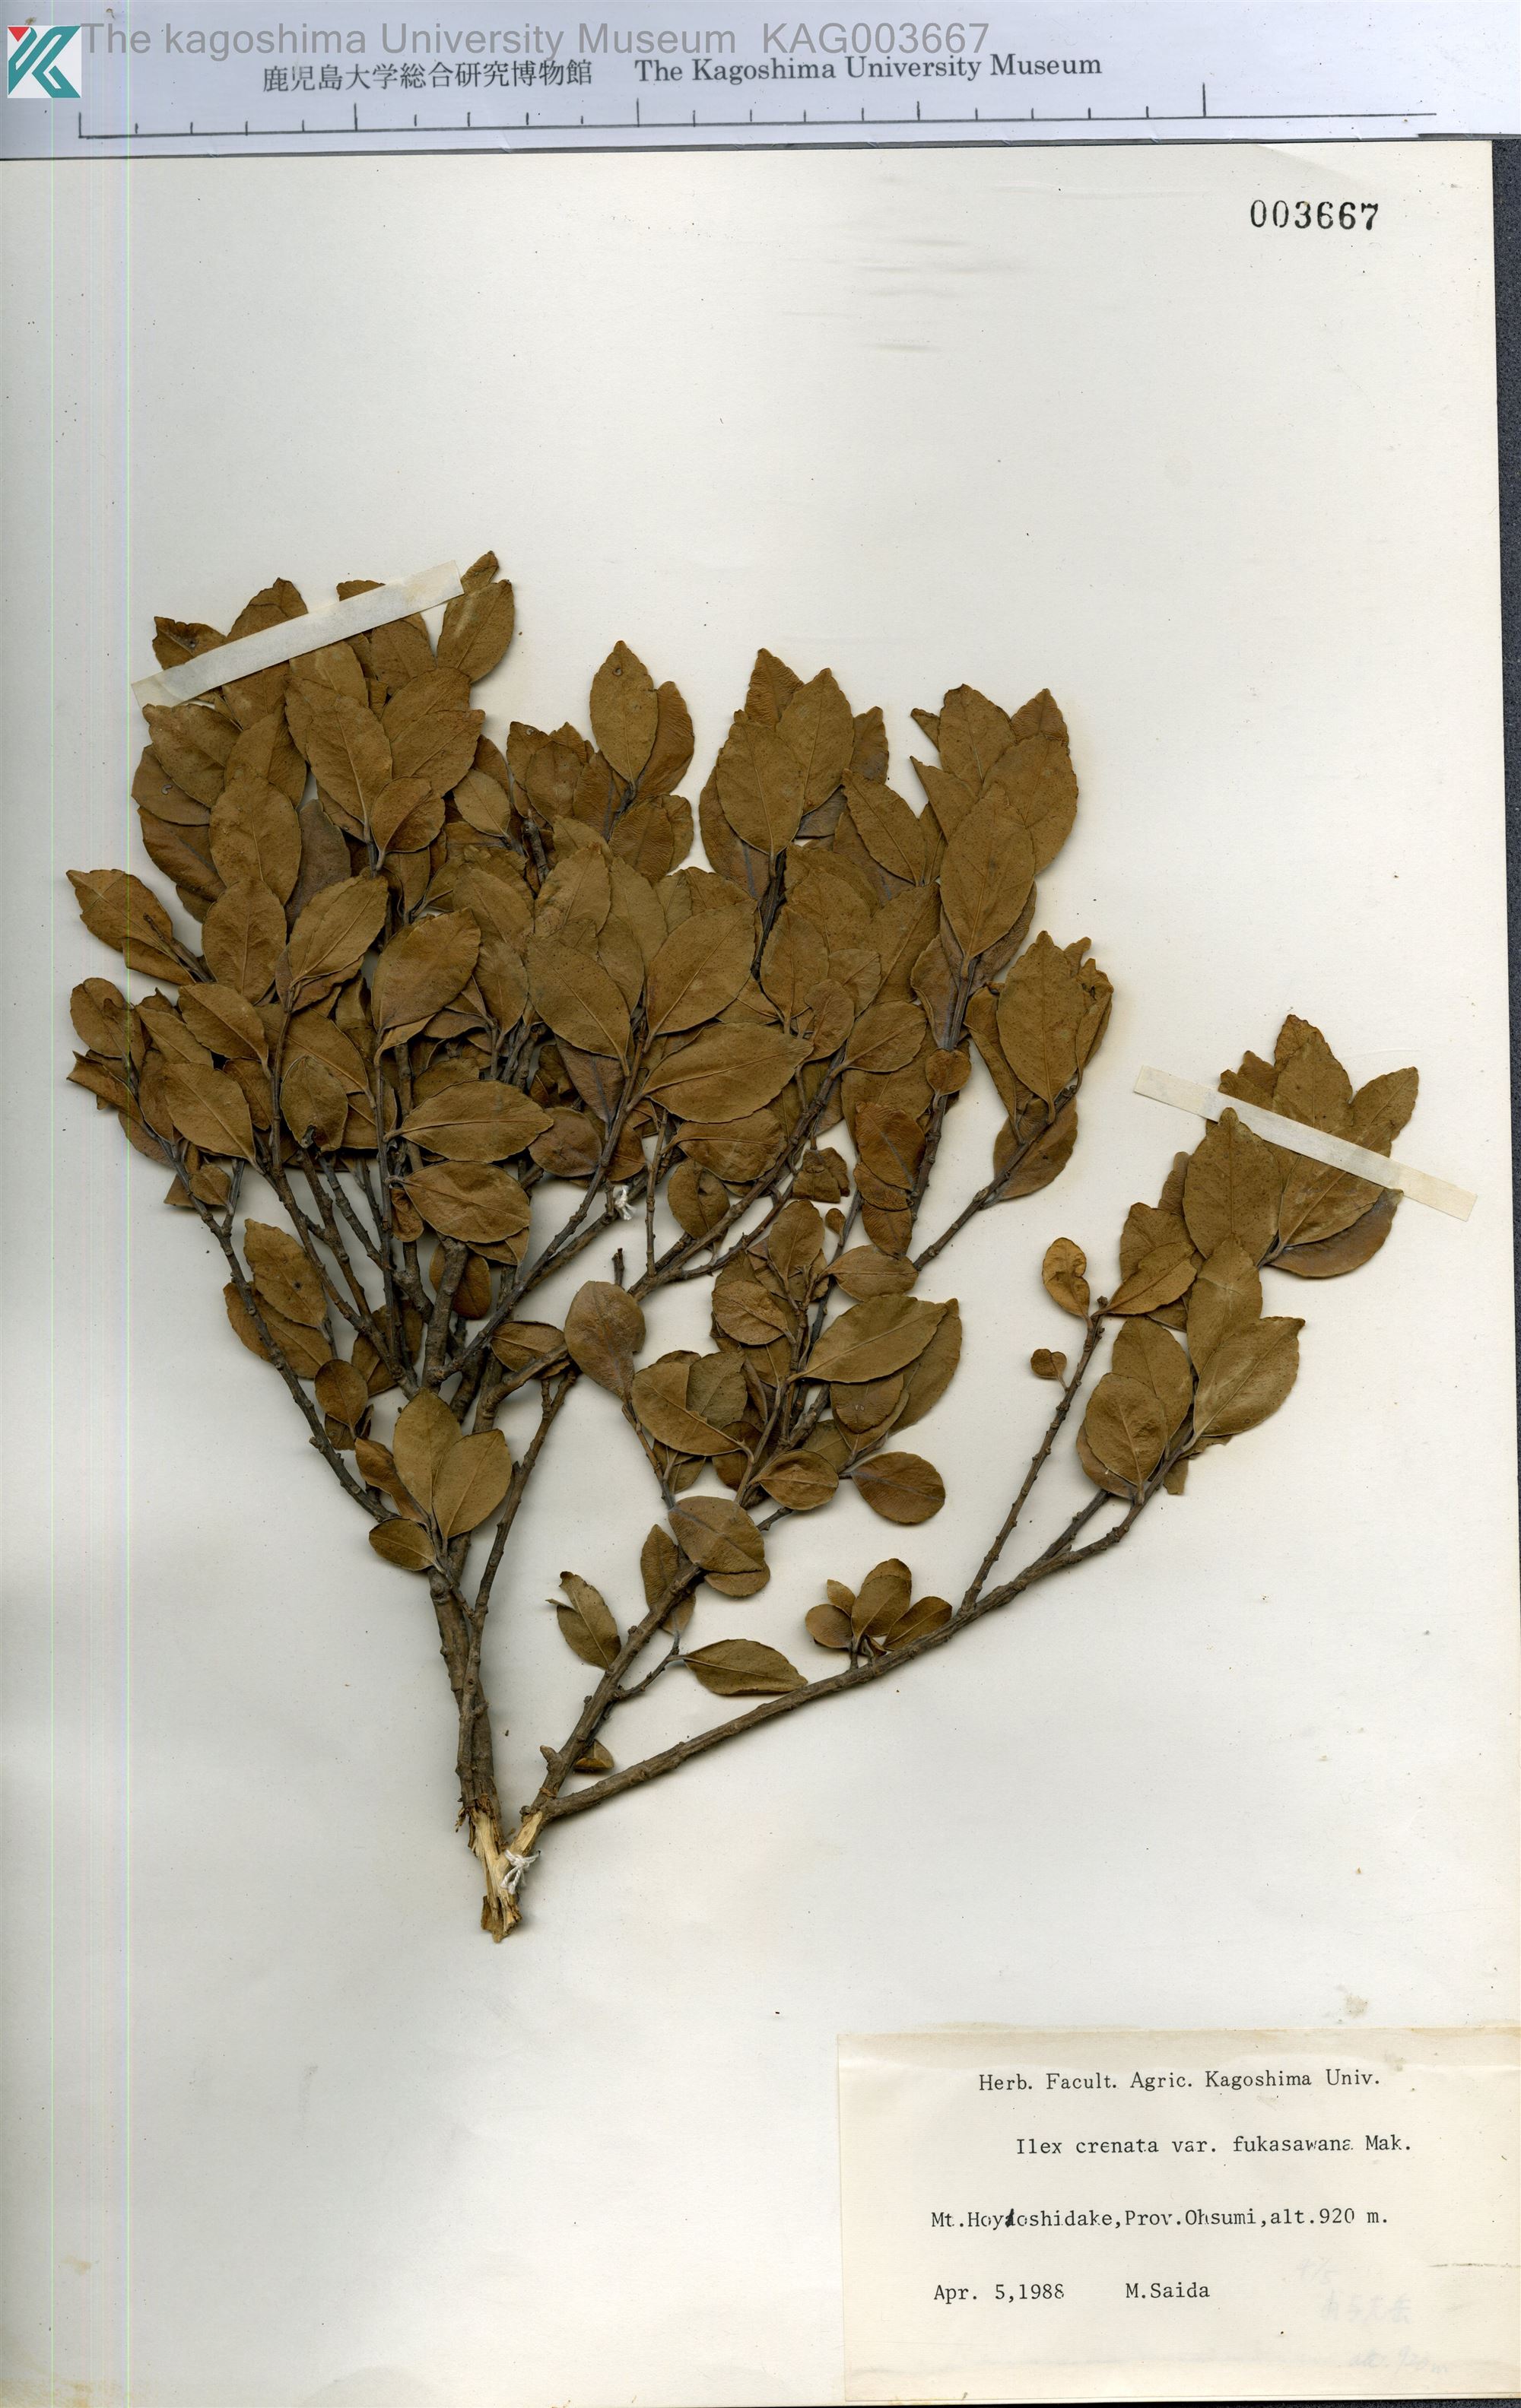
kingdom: Plantae
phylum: Tracheophyta
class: Magnoliopsida
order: Aquifoliales
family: Aquifoliaceae
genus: Ilex
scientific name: Ilex crenata
